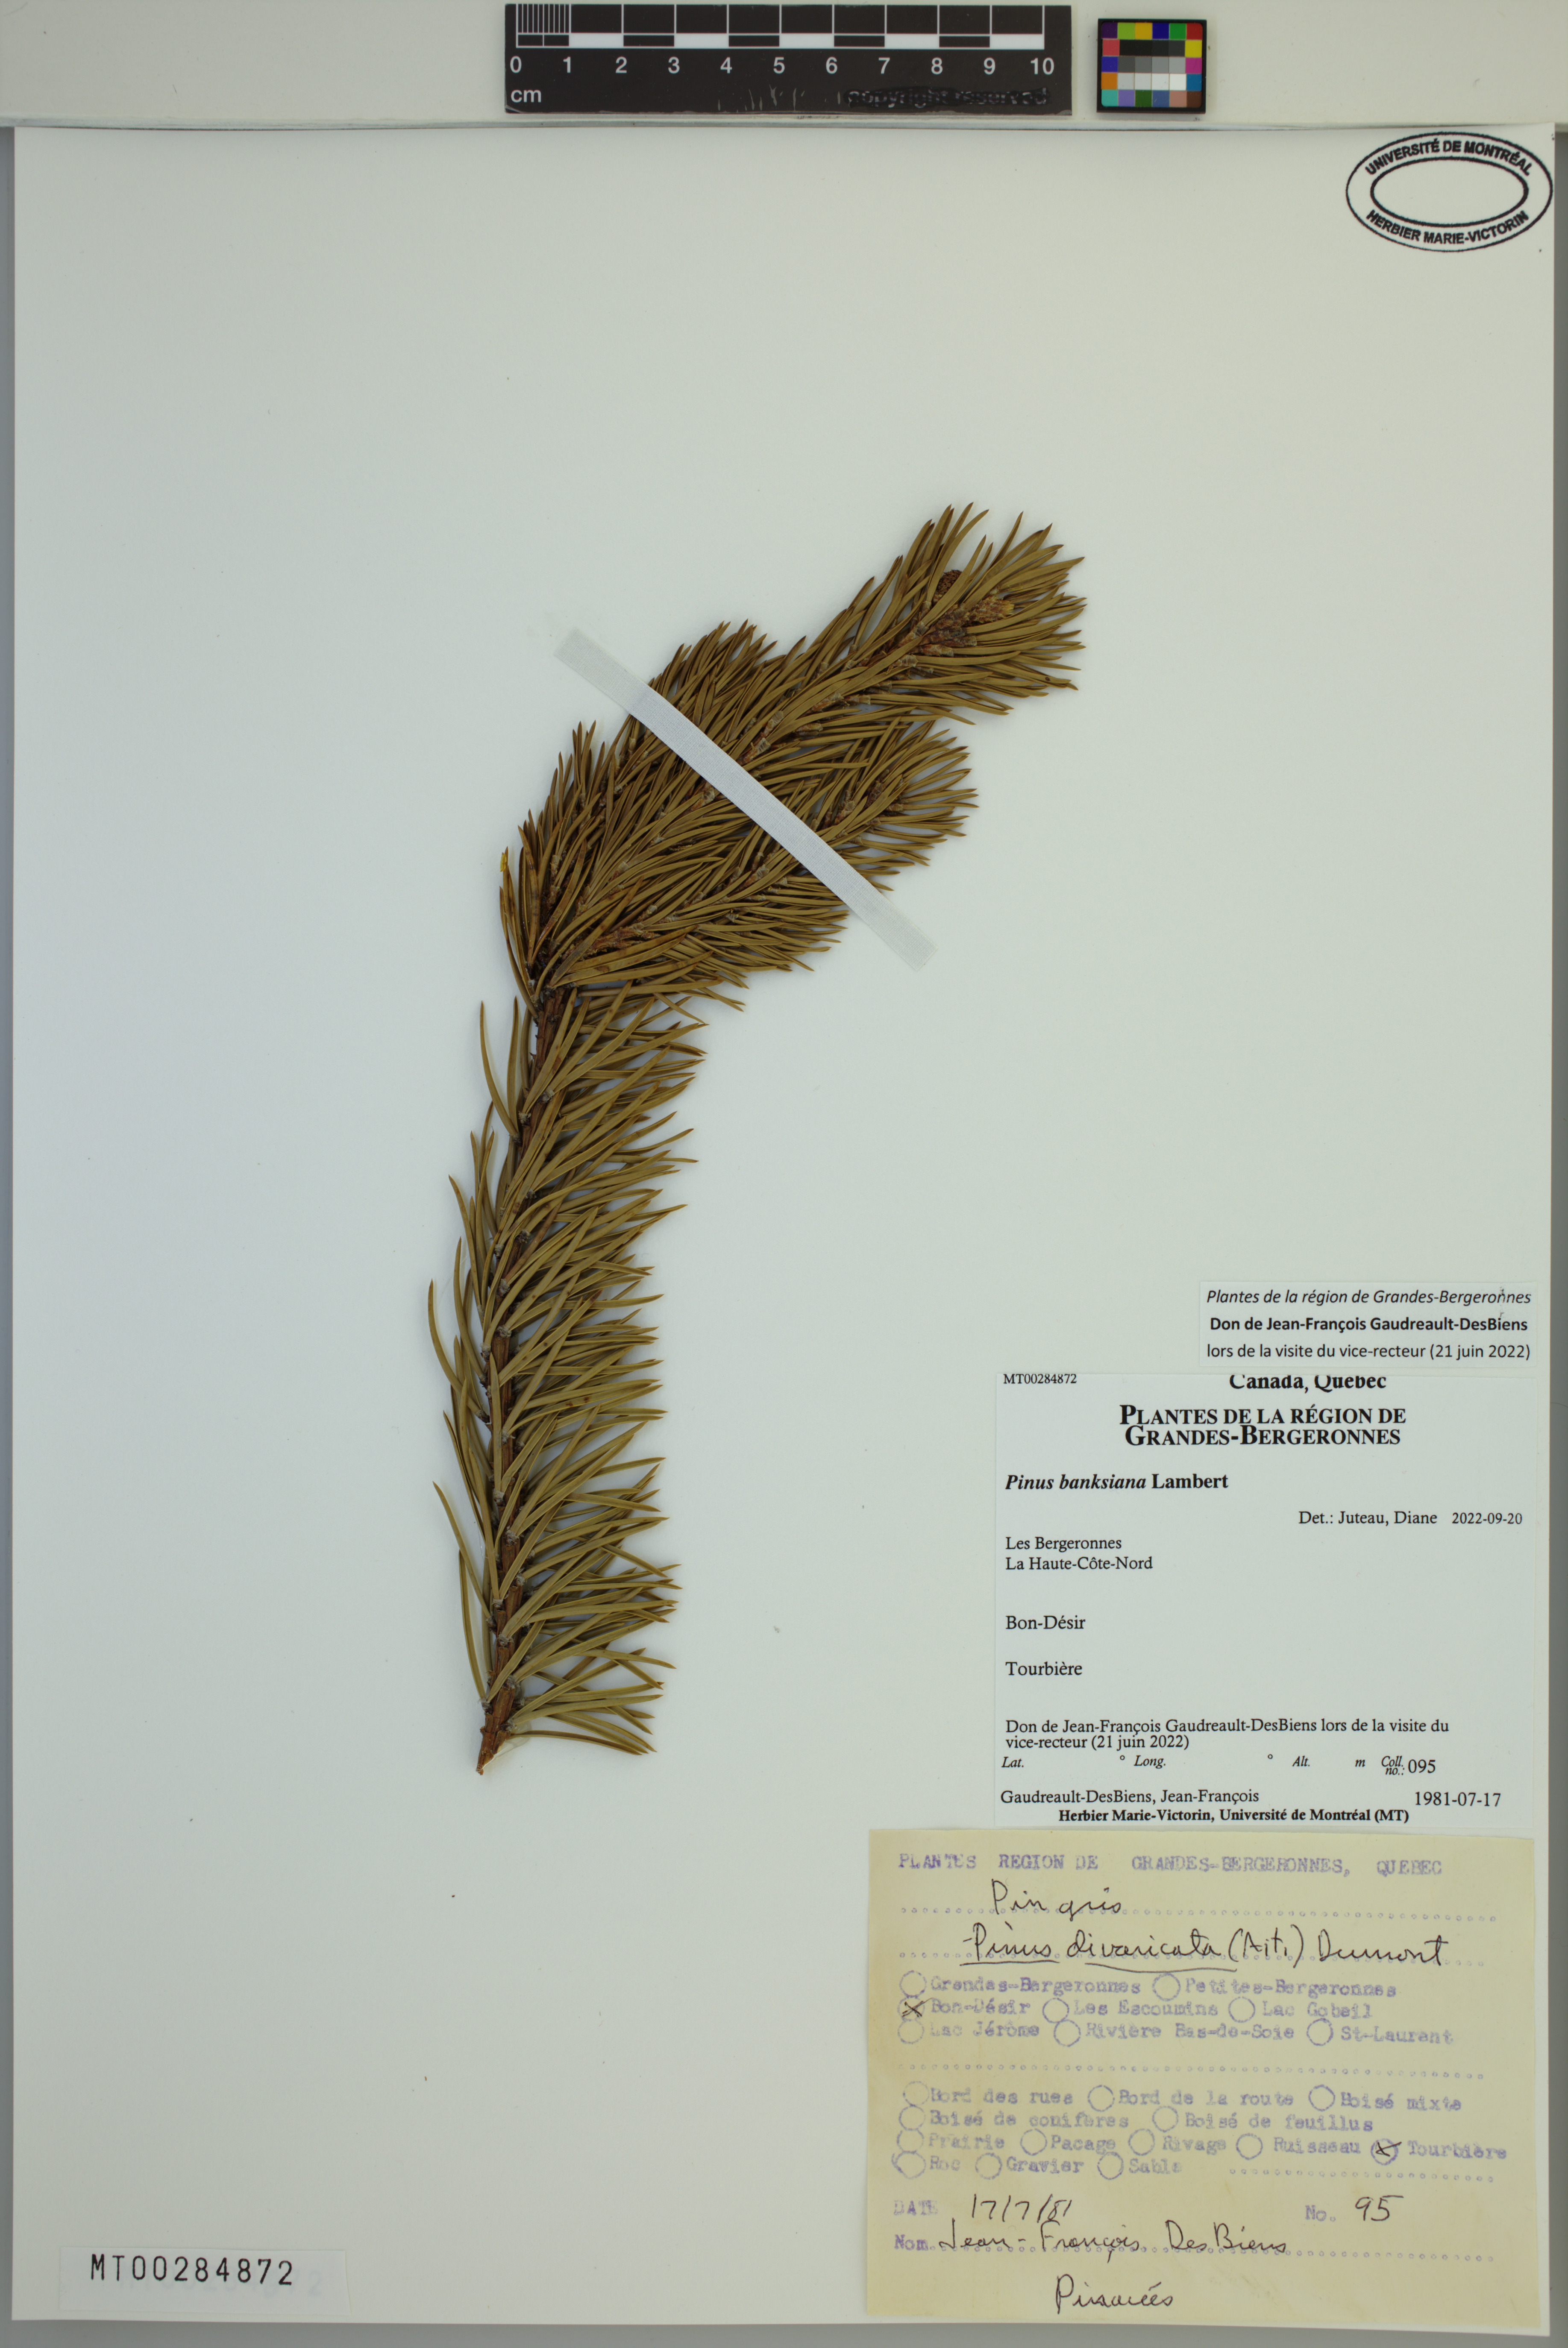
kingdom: Plantae
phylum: Tracheophyta
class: Pinopsida
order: Pinales
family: Pinaceae
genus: Pinus
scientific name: Pinus banksiana
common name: Jack pine
